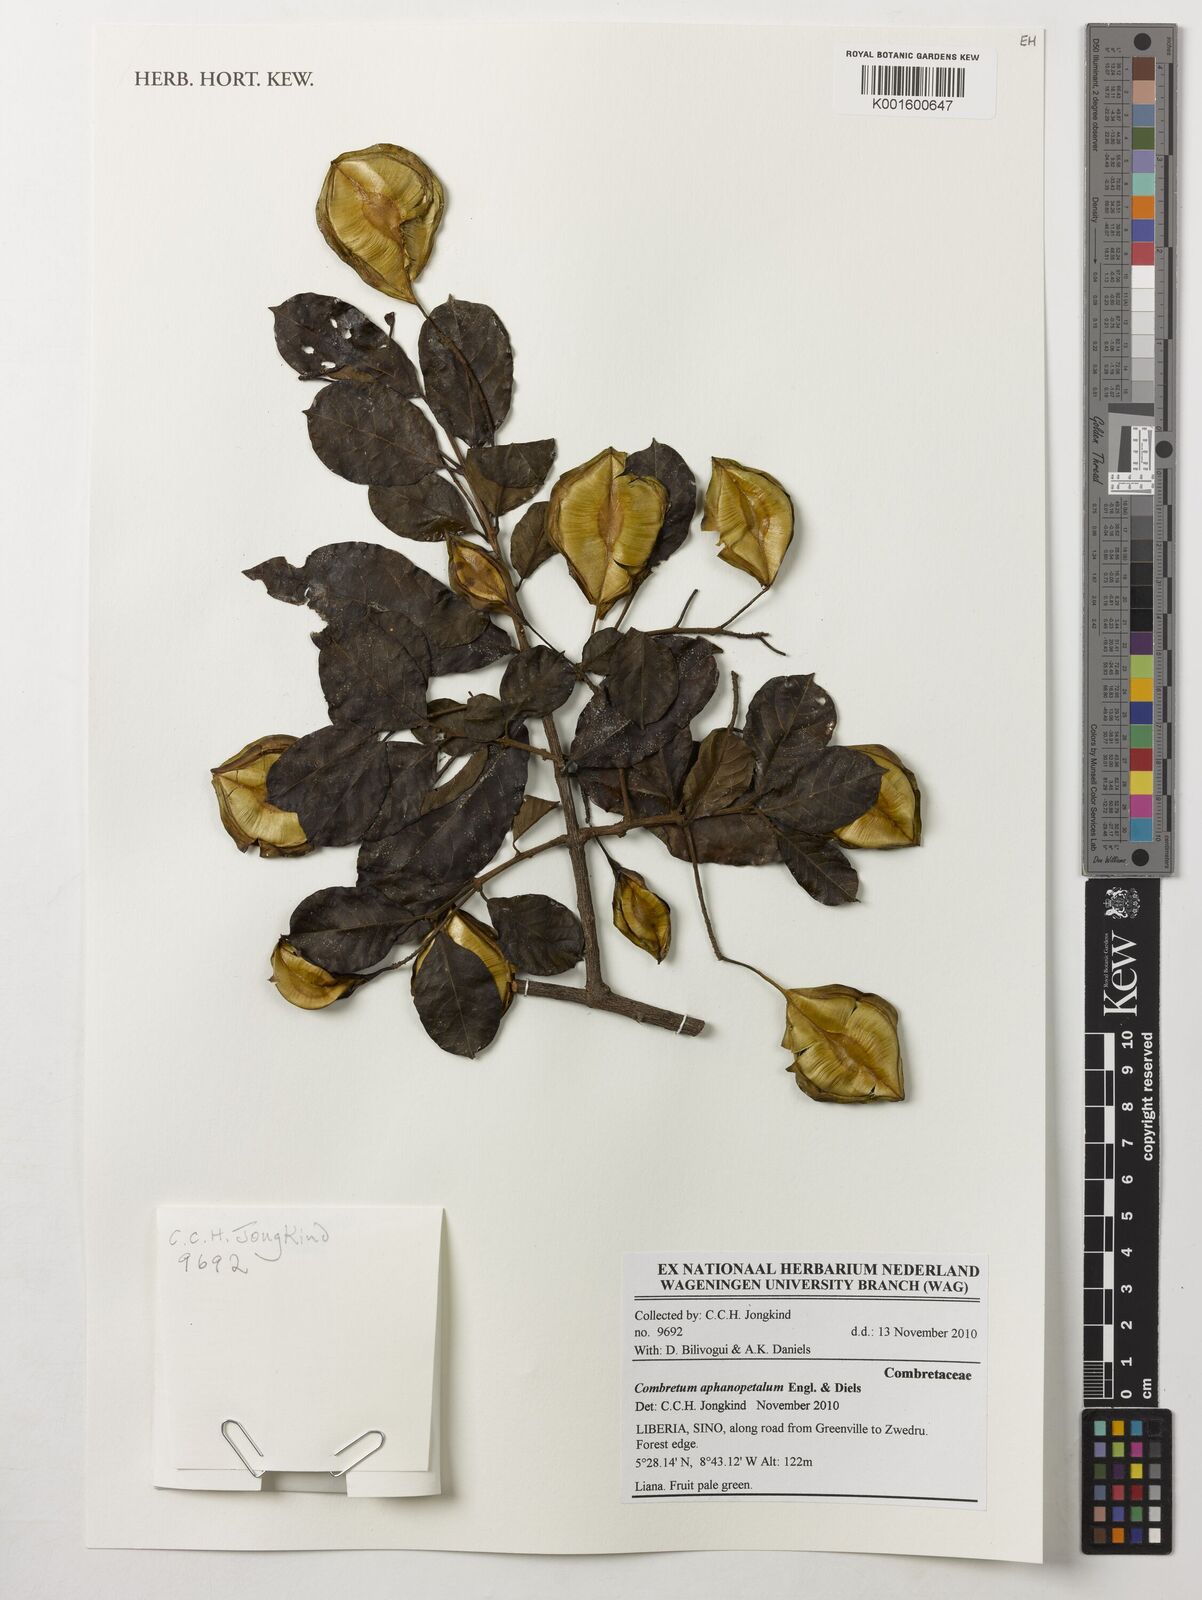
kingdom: Plantae
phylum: Tracheophyta
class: Magnoliopsida
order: Myrtales
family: Combretaceae
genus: Combretum
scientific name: Combretum aphanopetalum
